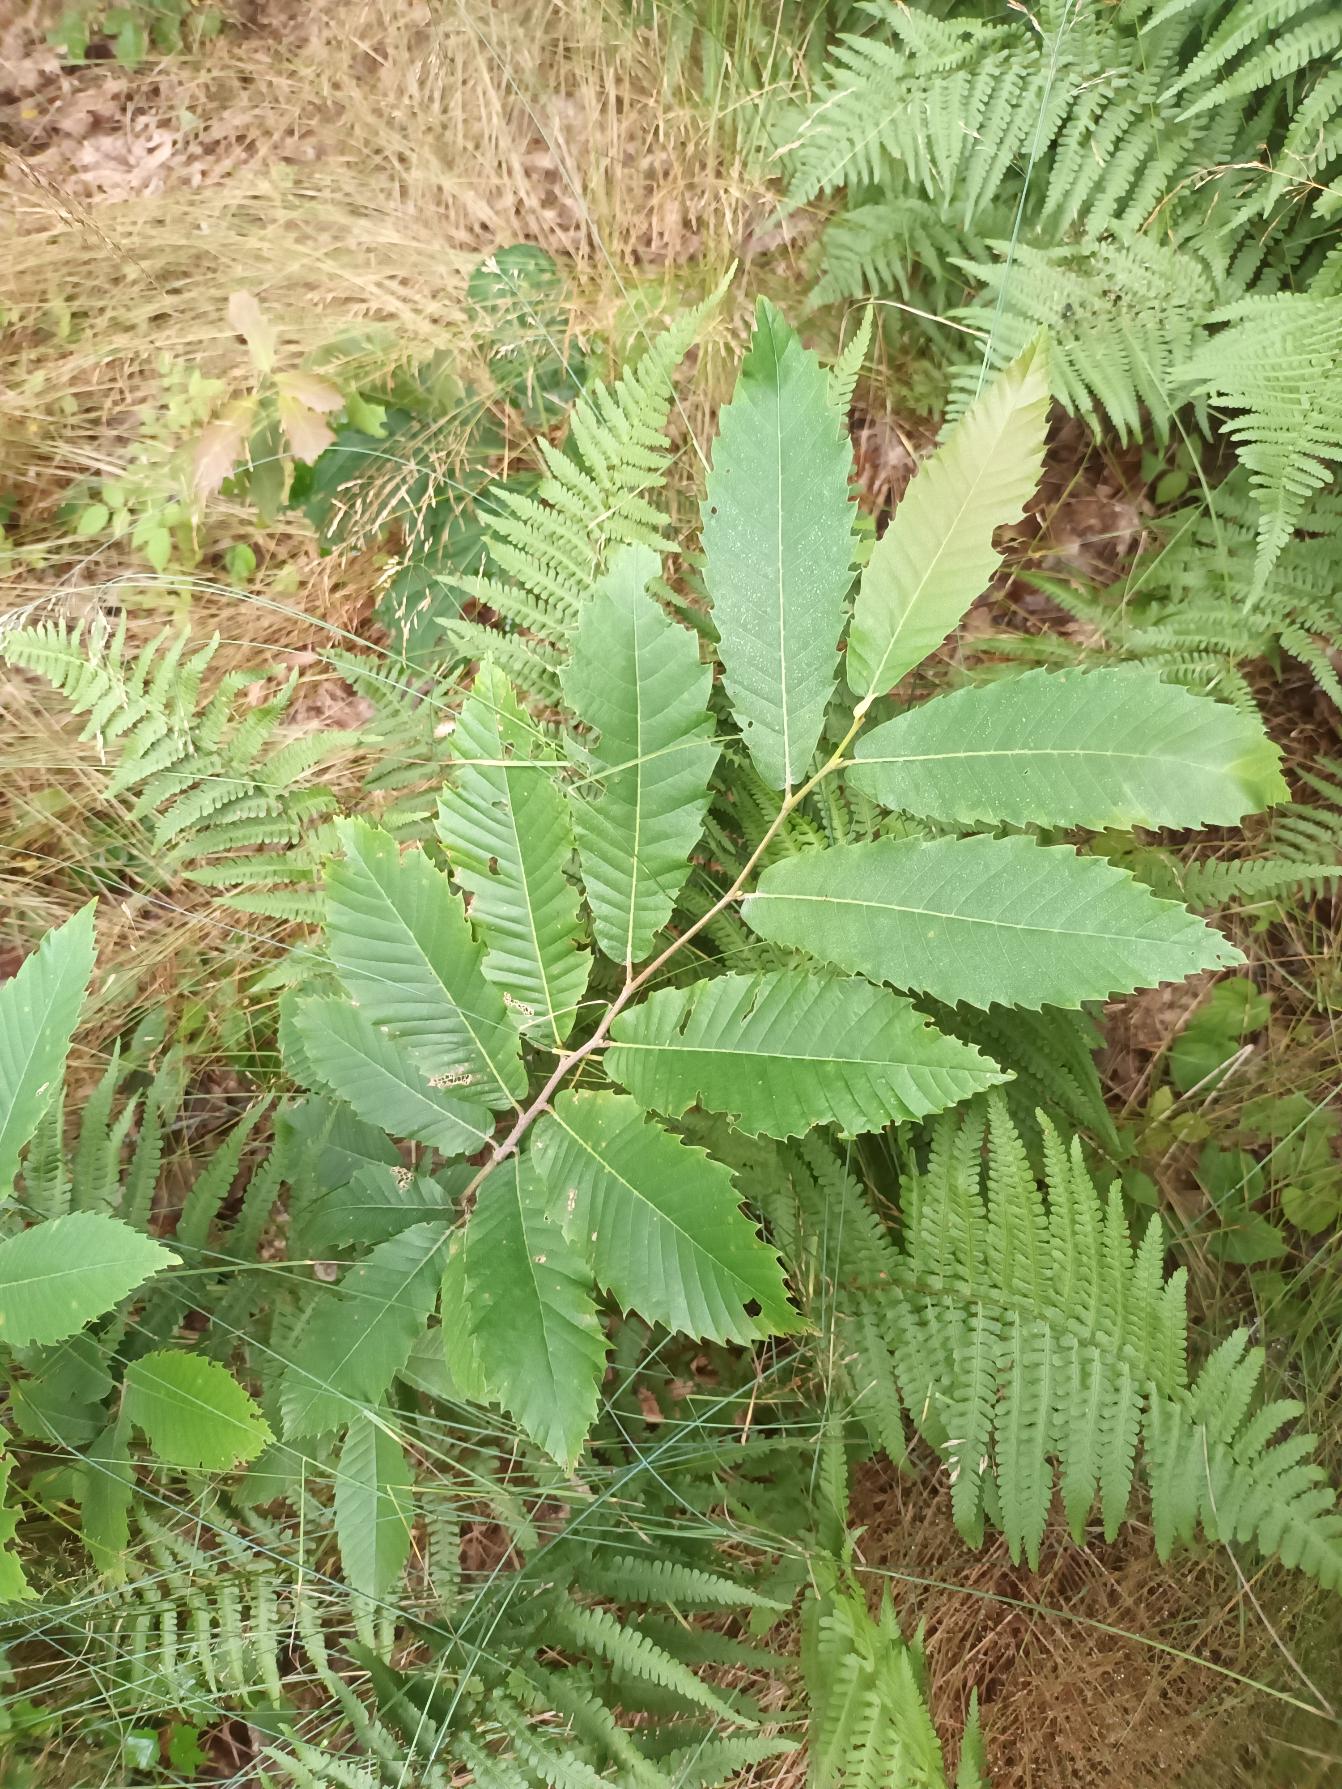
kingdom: Plantae
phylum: Tracheophyta
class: Magnoliopsida
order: Fagales
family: Fagaceae
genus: Castanea
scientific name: Castanea sativa
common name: Ægte kastanie
